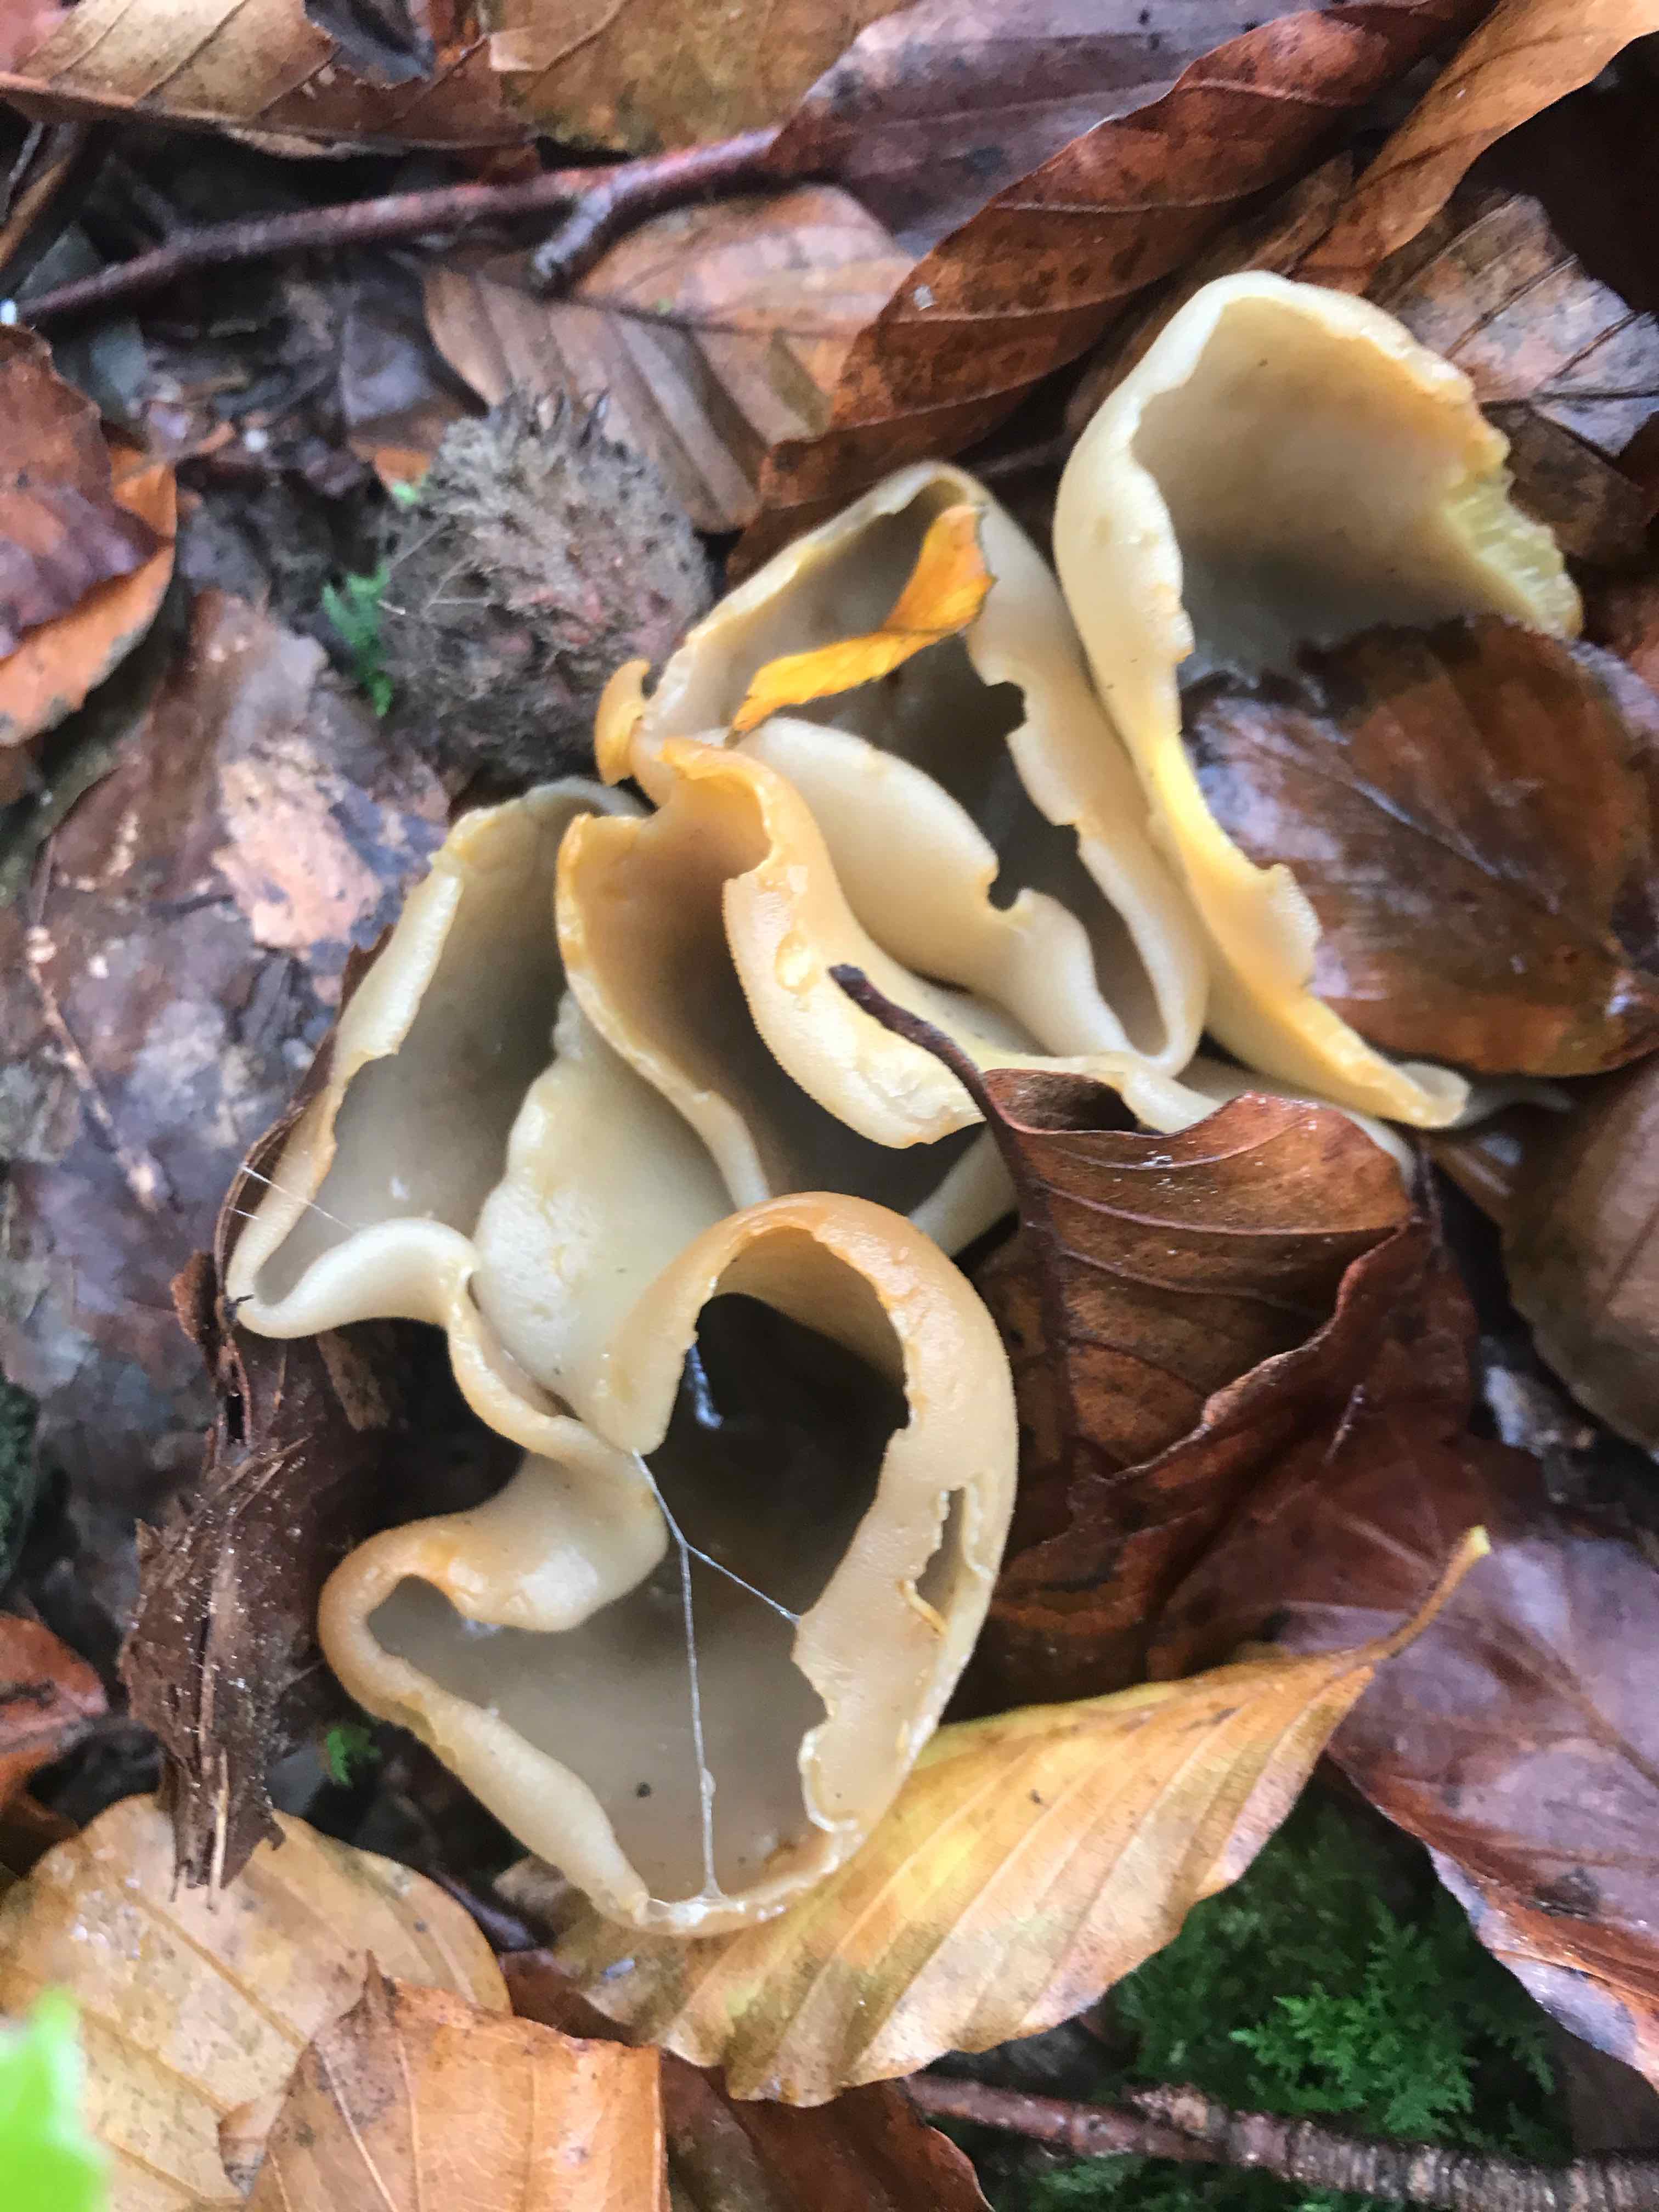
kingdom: Fungi
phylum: Ascomycota
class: Pezizomycetes
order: Pezizales
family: Pezizaceae
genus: Paragalactinia
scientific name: Paragalactinia succosa
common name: gulmælket bægersvamp
